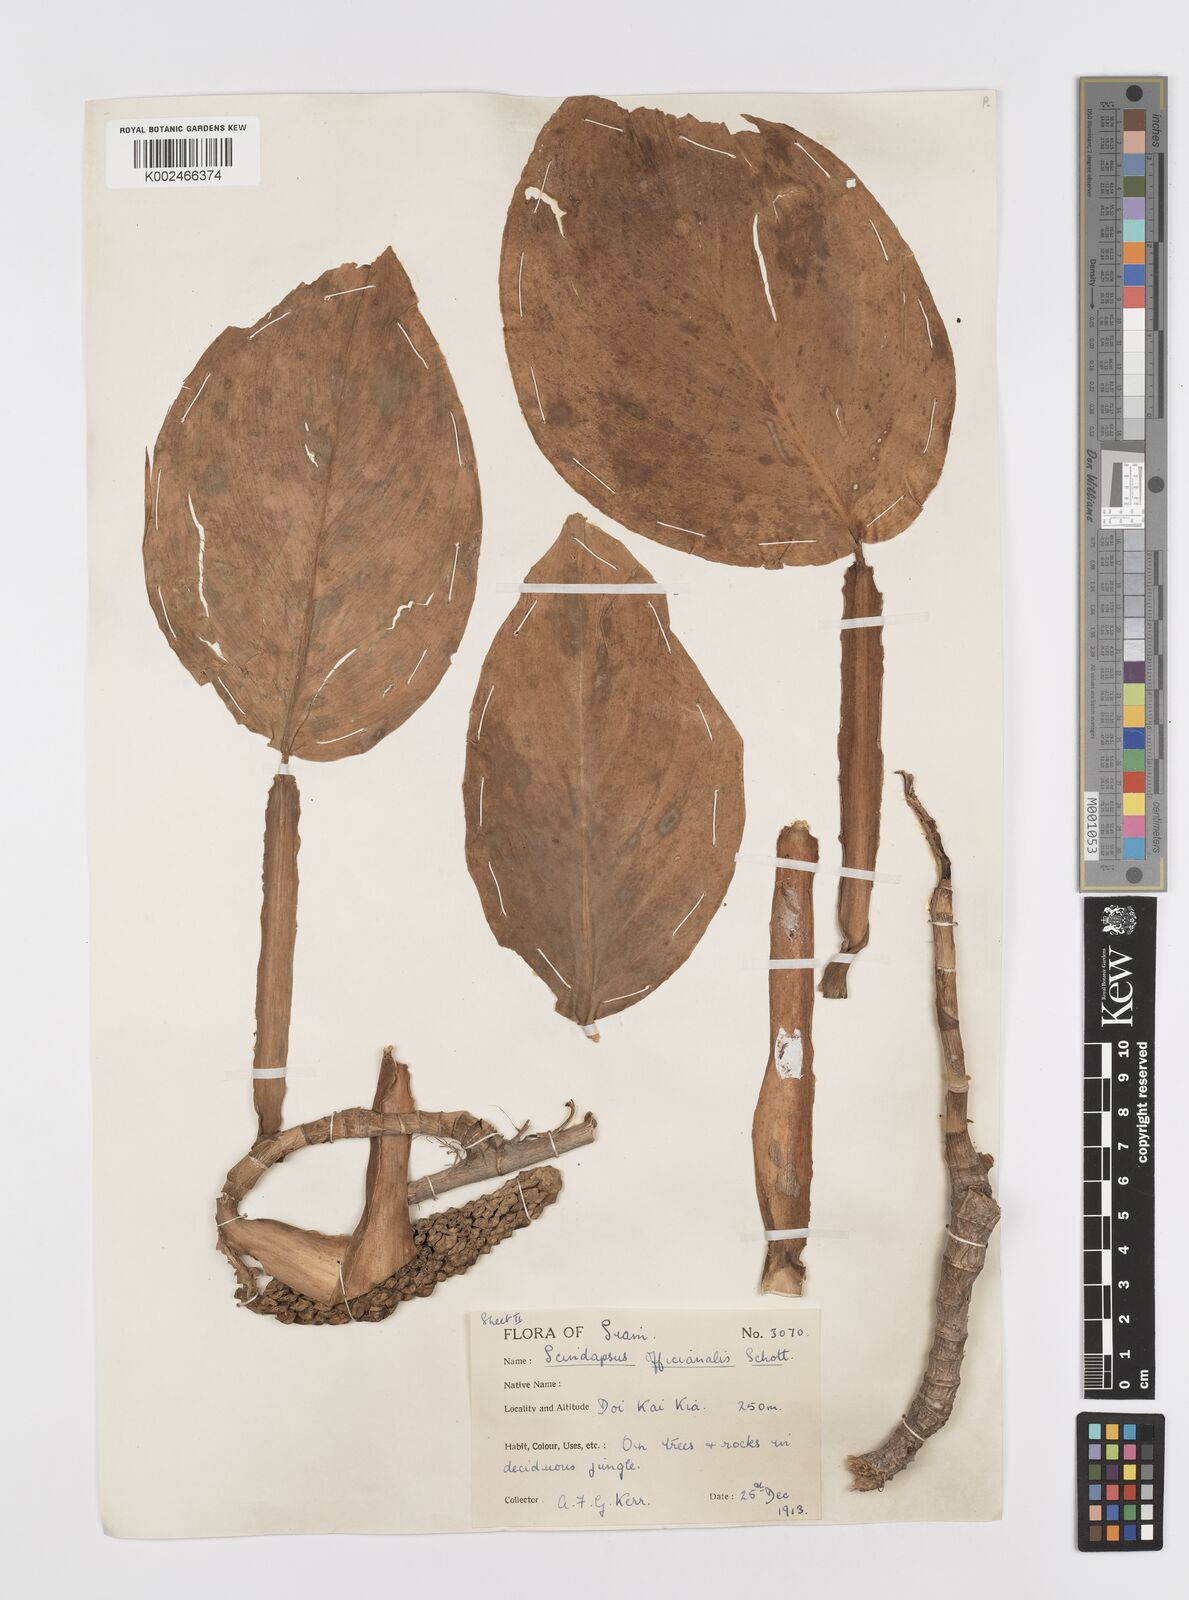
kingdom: Plantae
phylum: Tracheophyta
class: Liliopsida
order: Alismatales
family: Araceae
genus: Scindapsus
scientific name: Scindapsus officinalis
